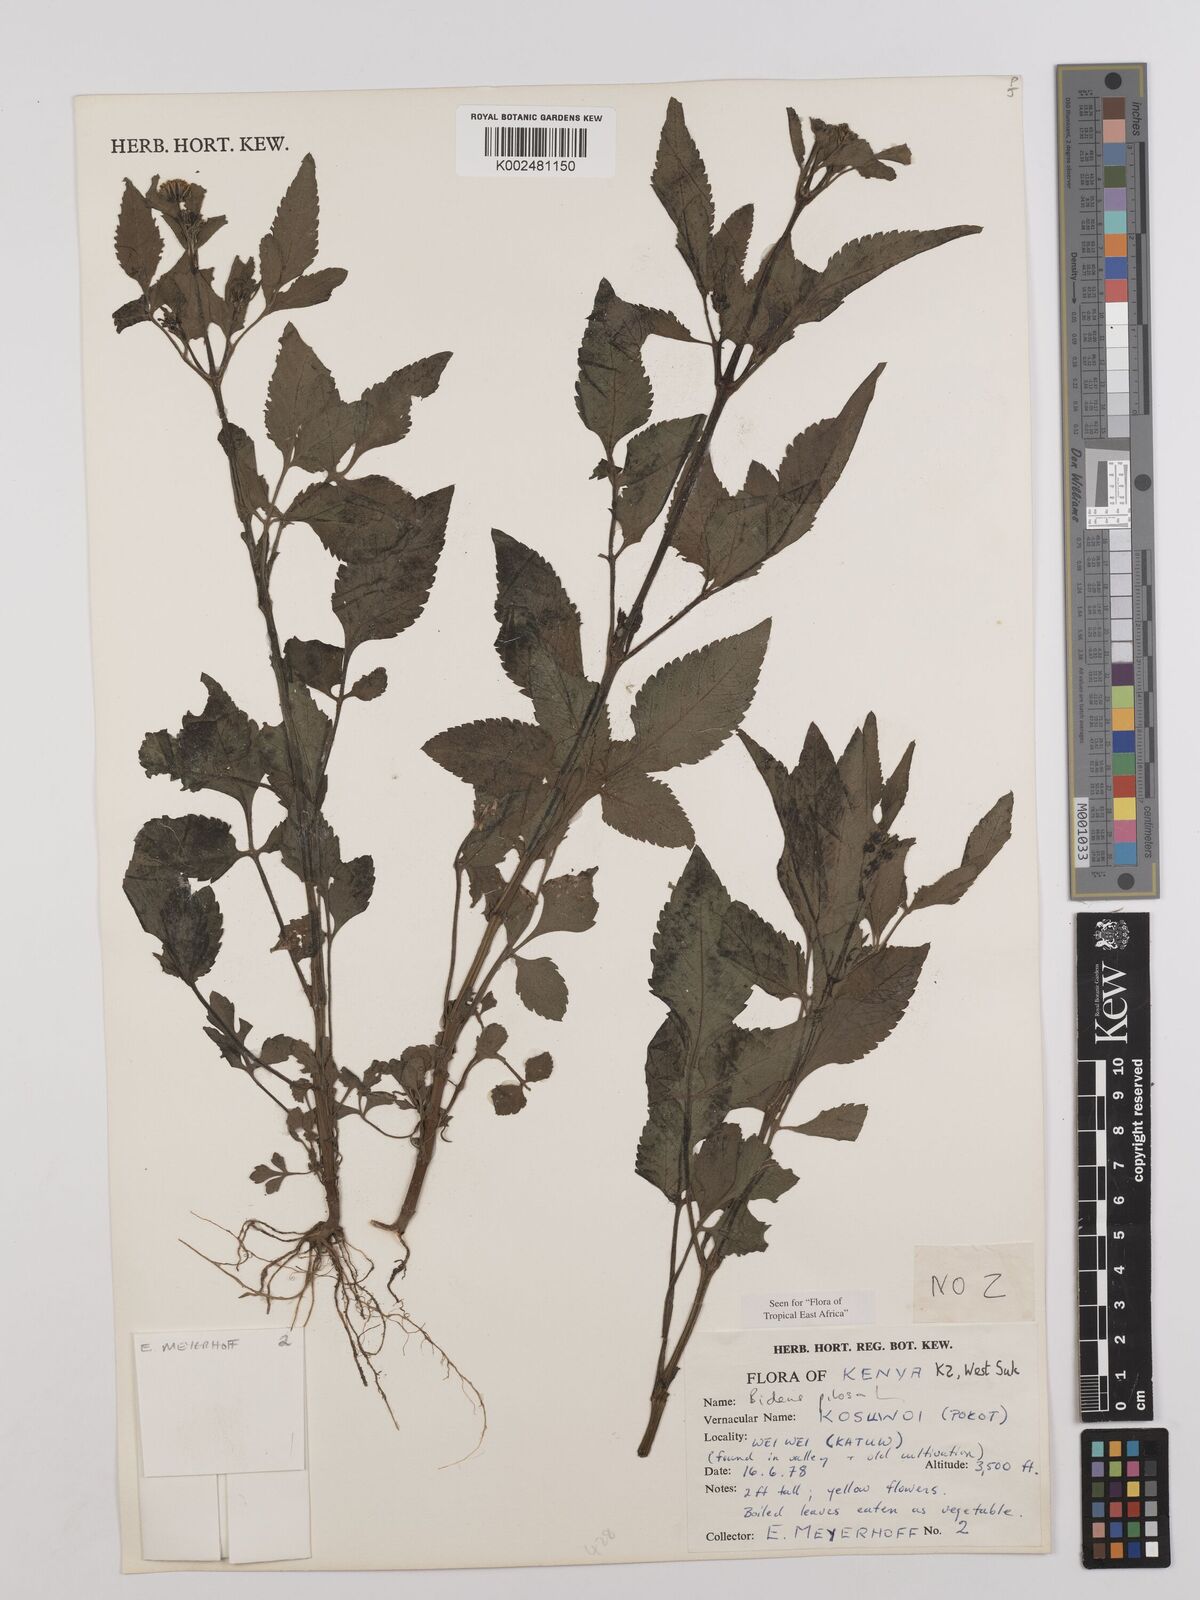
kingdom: Plantae
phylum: Tracheophyta
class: Magnoliopsida
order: Asterales
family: Asteraceae
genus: Bidens
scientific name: Bidens pilosa
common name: Black-jack
